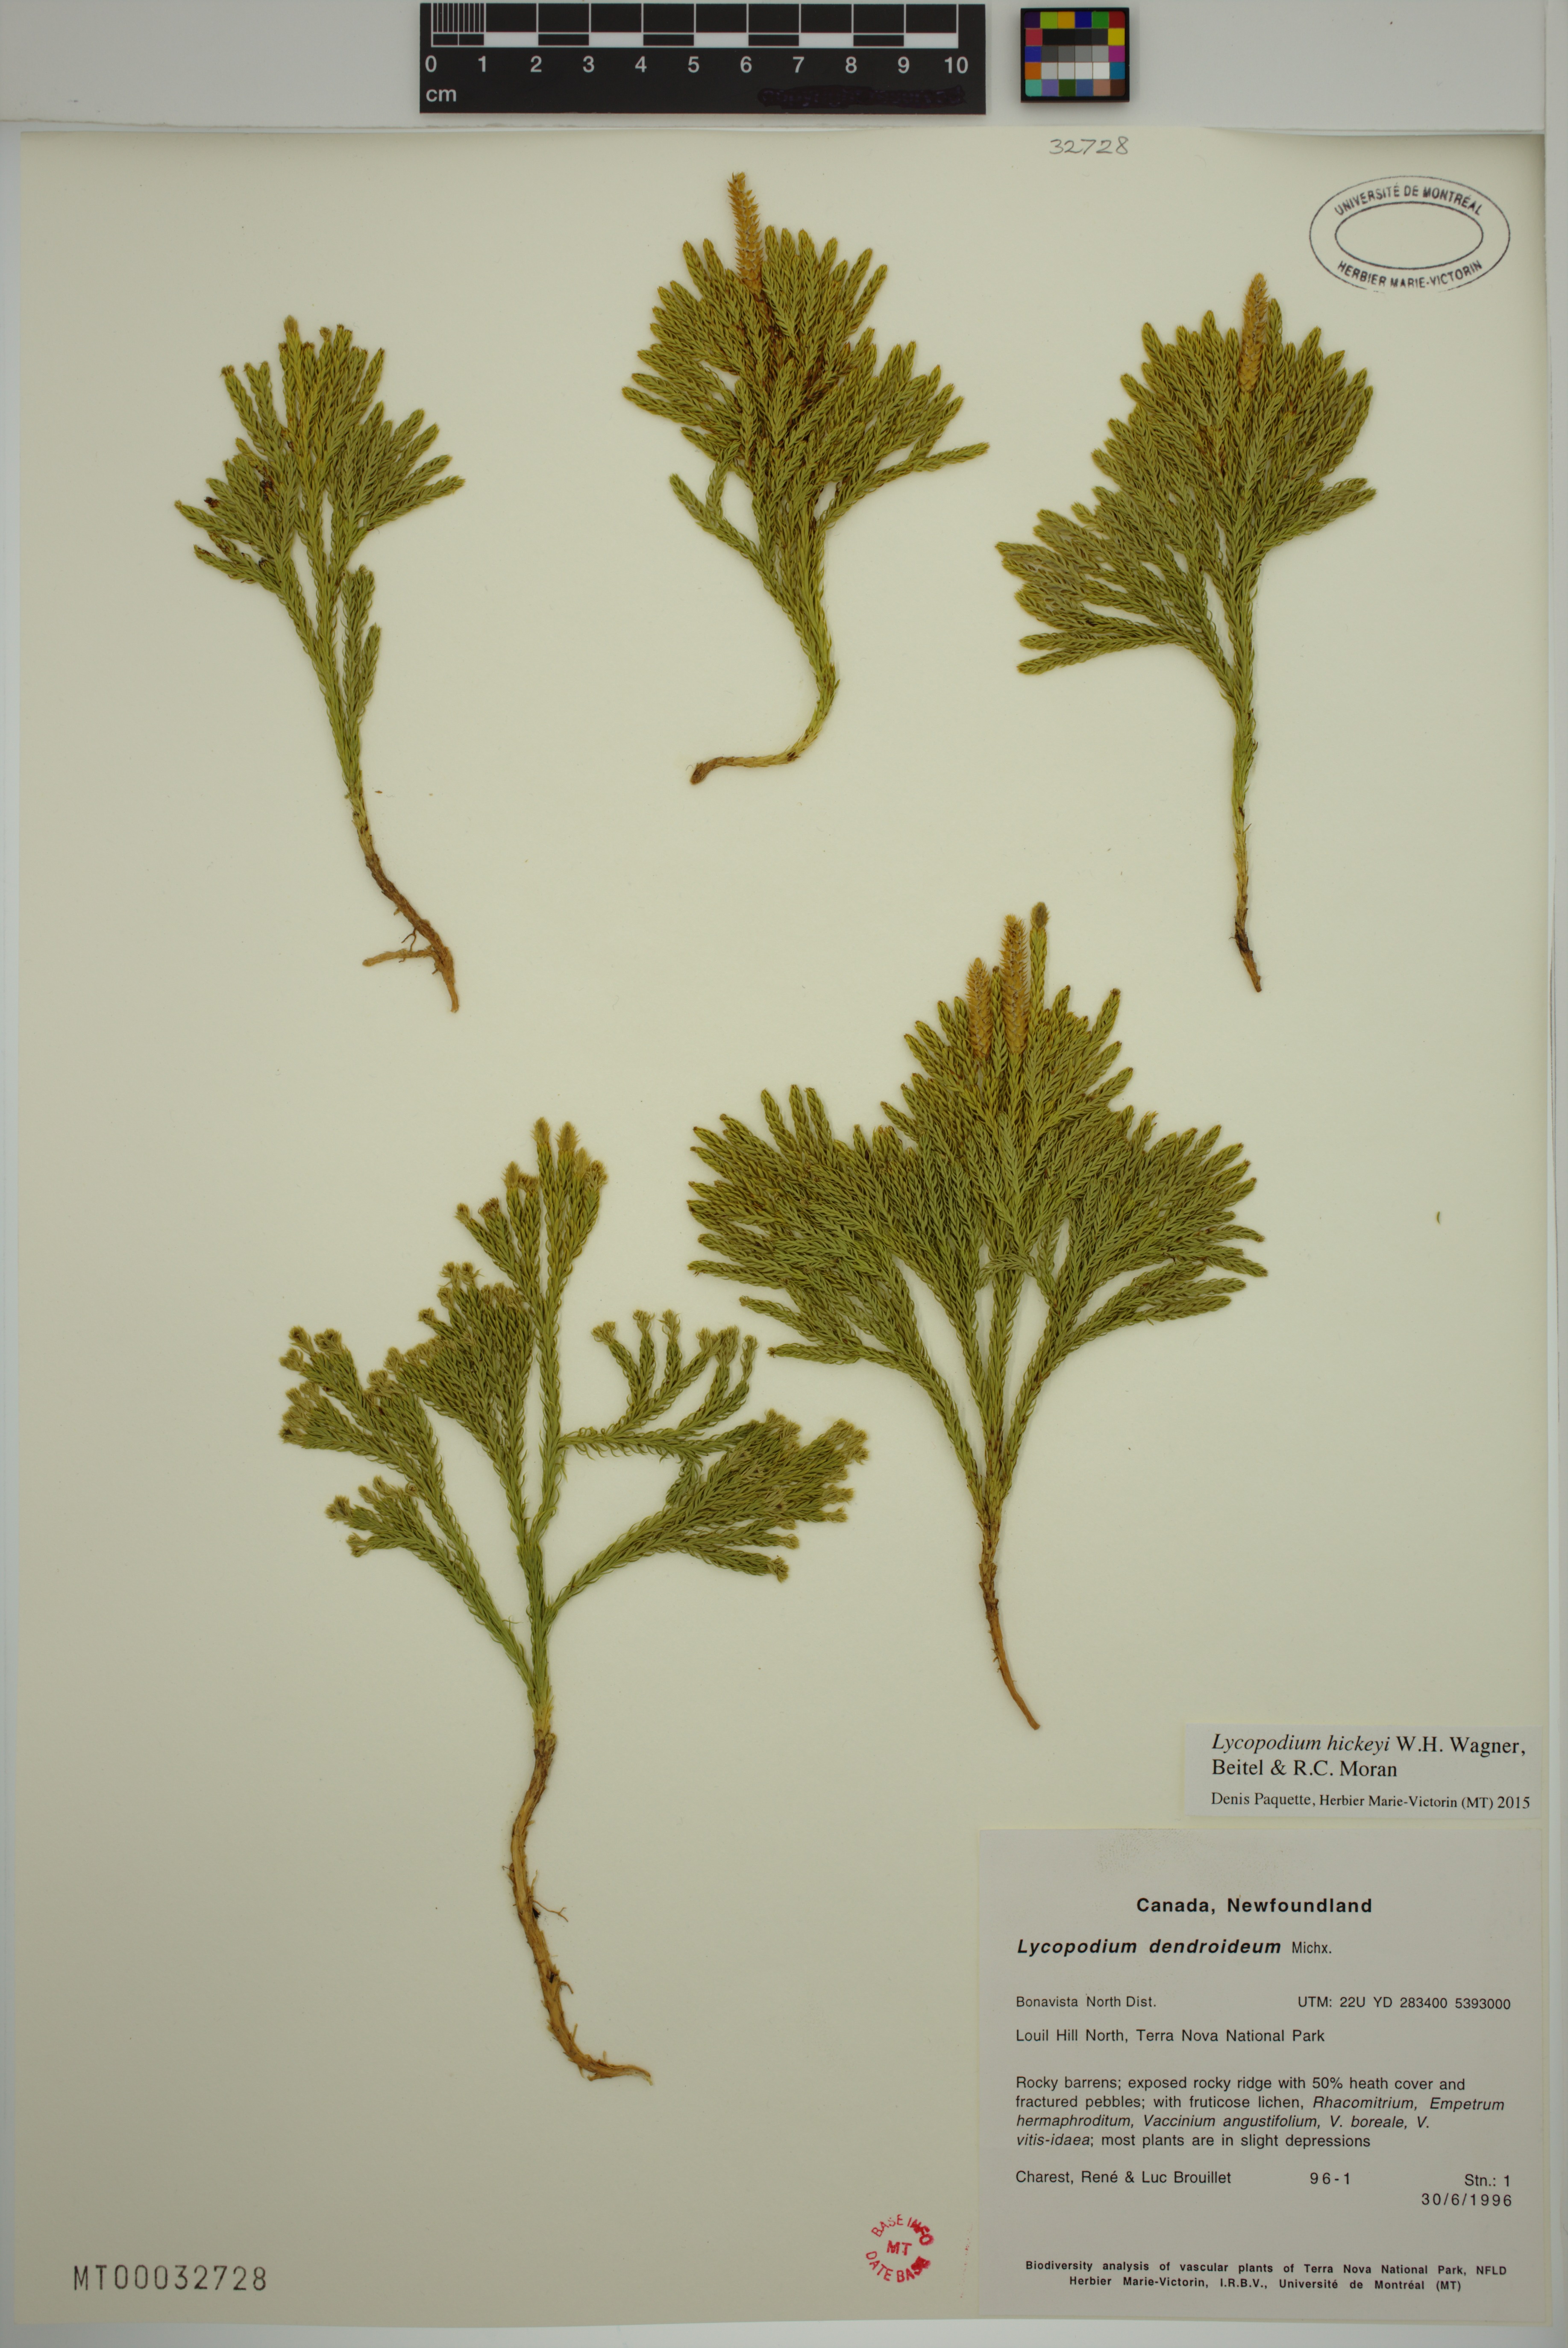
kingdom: Plantae
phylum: Tracheophyta
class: Lycopodiopsida
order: Lycopodiales
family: Lycopodiaceae
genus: Dendrolycopodium
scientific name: Dendrolycopodium hickeyi
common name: Hickey's clubmoss
